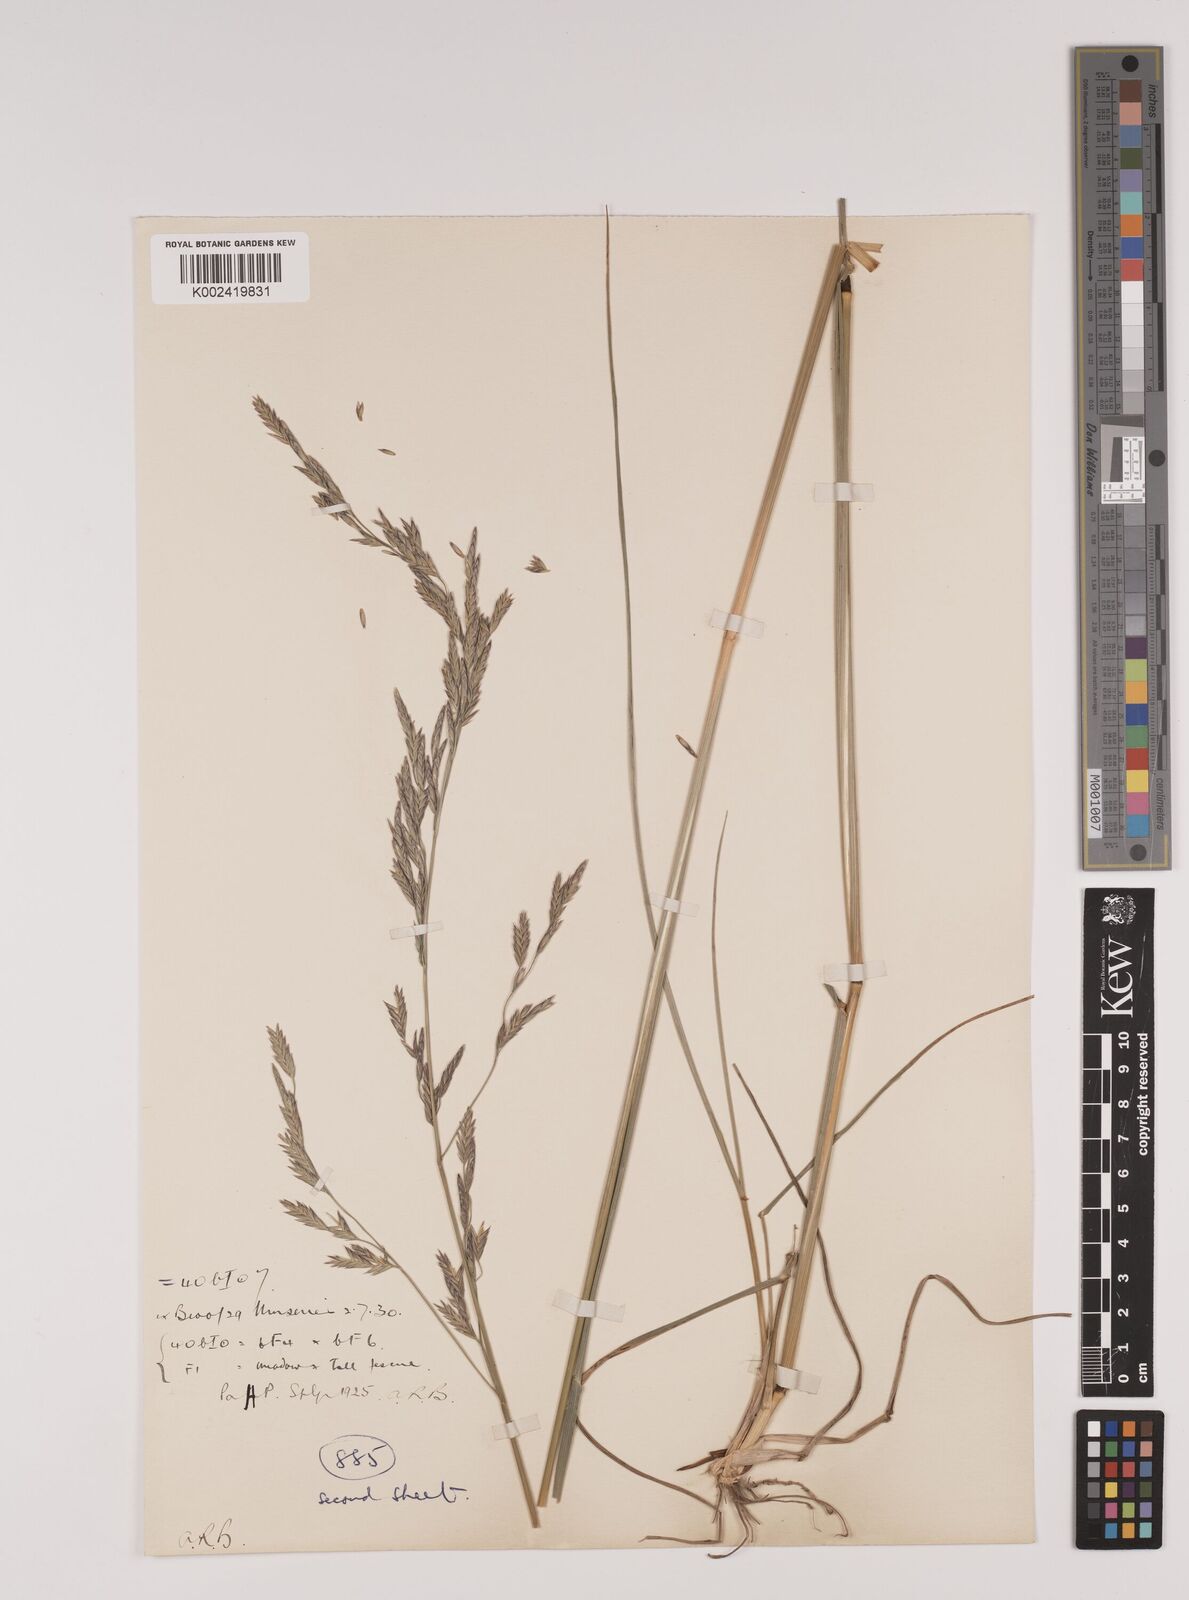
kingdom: Plantae
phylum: Tracheophyta
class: Liliopsida
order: Poales
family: Poaceae
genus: Festuca
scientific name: Festuca rubra
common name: Red fescue
